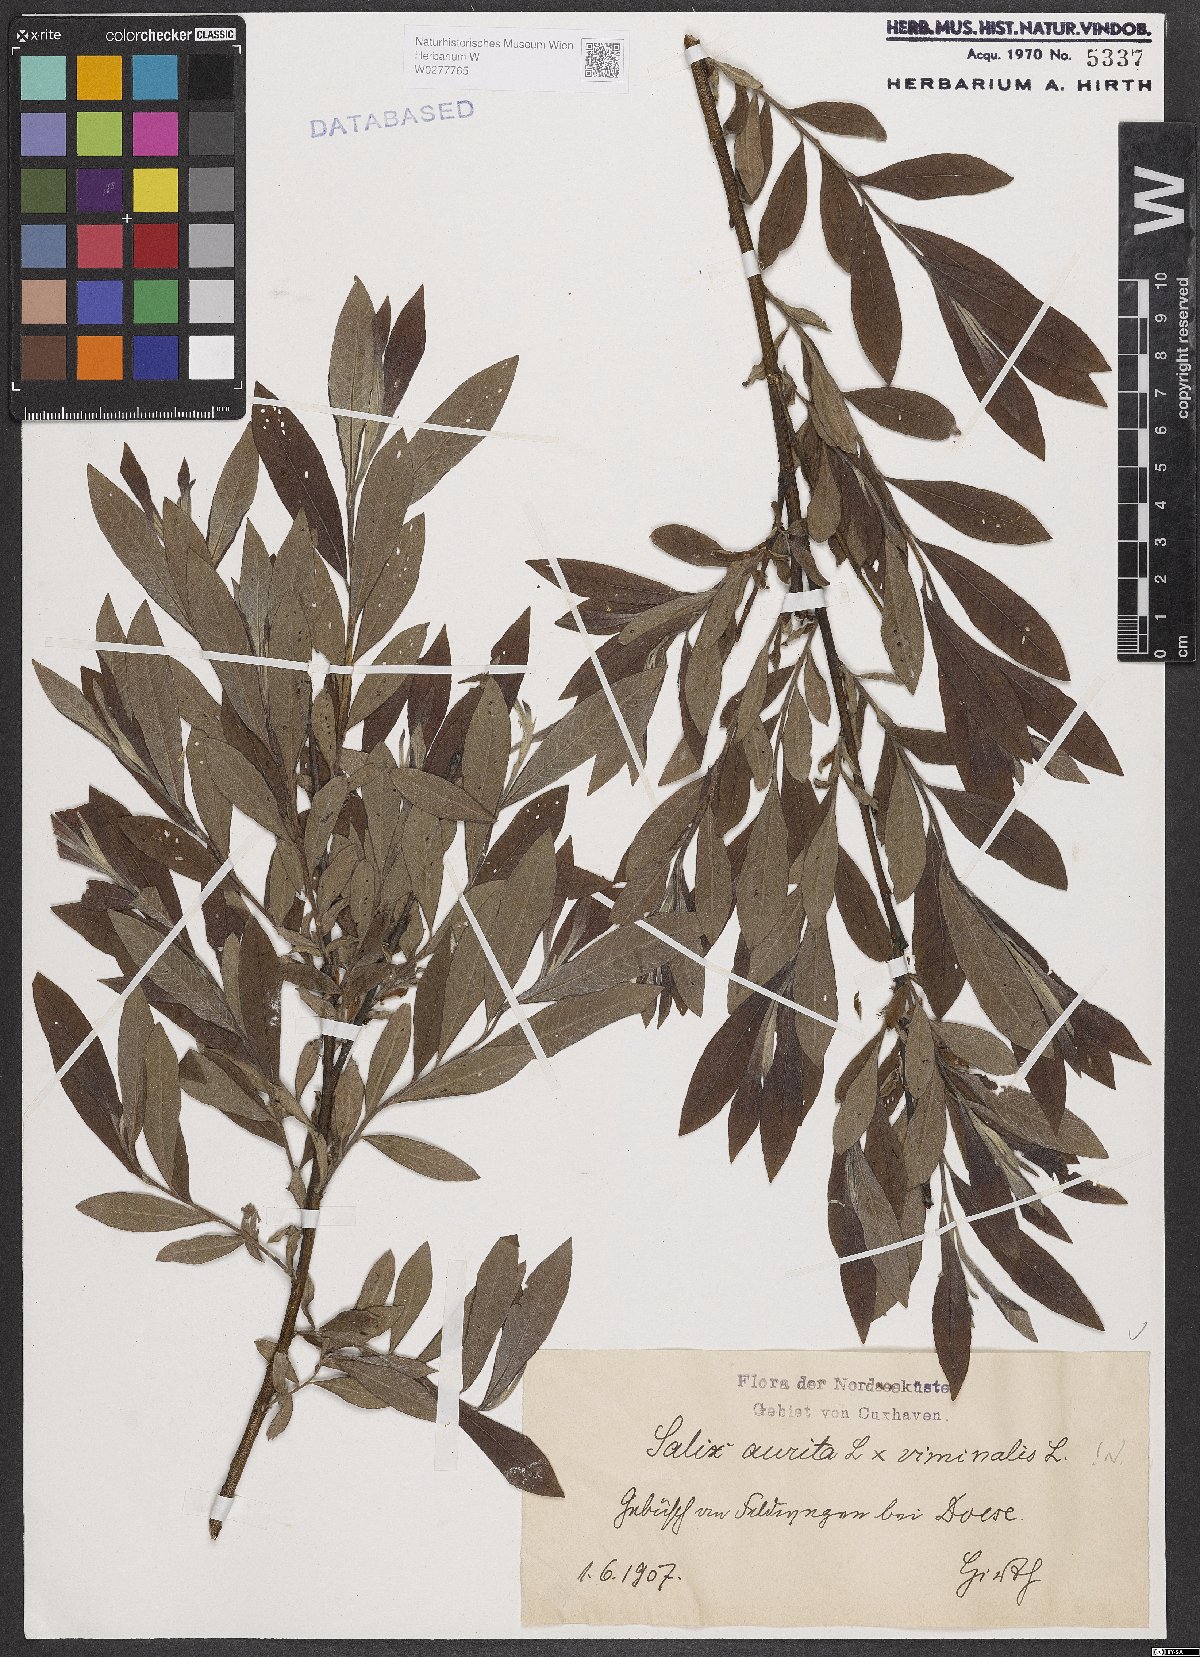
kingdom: Plantae
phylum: Tracheophyta
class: Magnoliopsida
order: Malpighiales
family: Salicaceae
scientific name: Salicaceae
